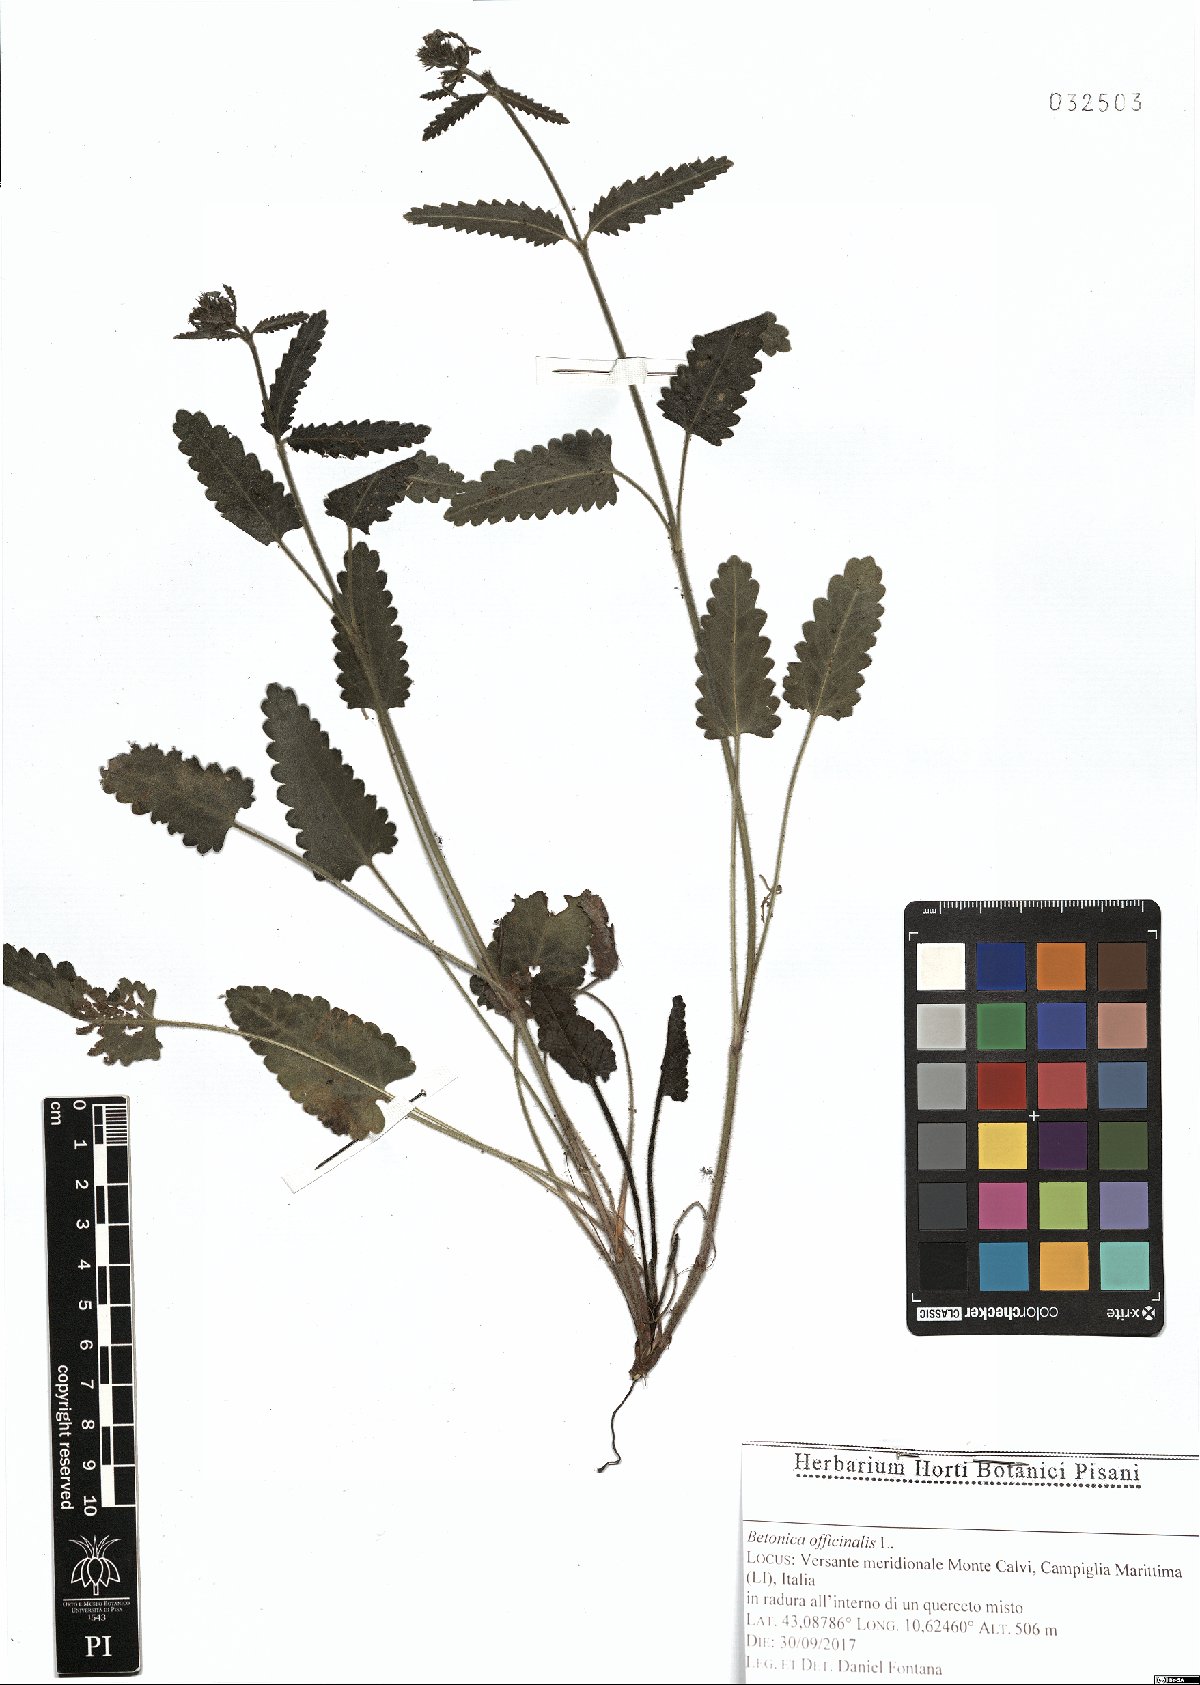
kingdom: Plantae
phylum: Tracheophyta
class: Magnoliopsida
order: Lamiales
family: Lamiaceae
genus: Betonica
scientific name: Betonica officinalis
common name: Bishop's-wort
